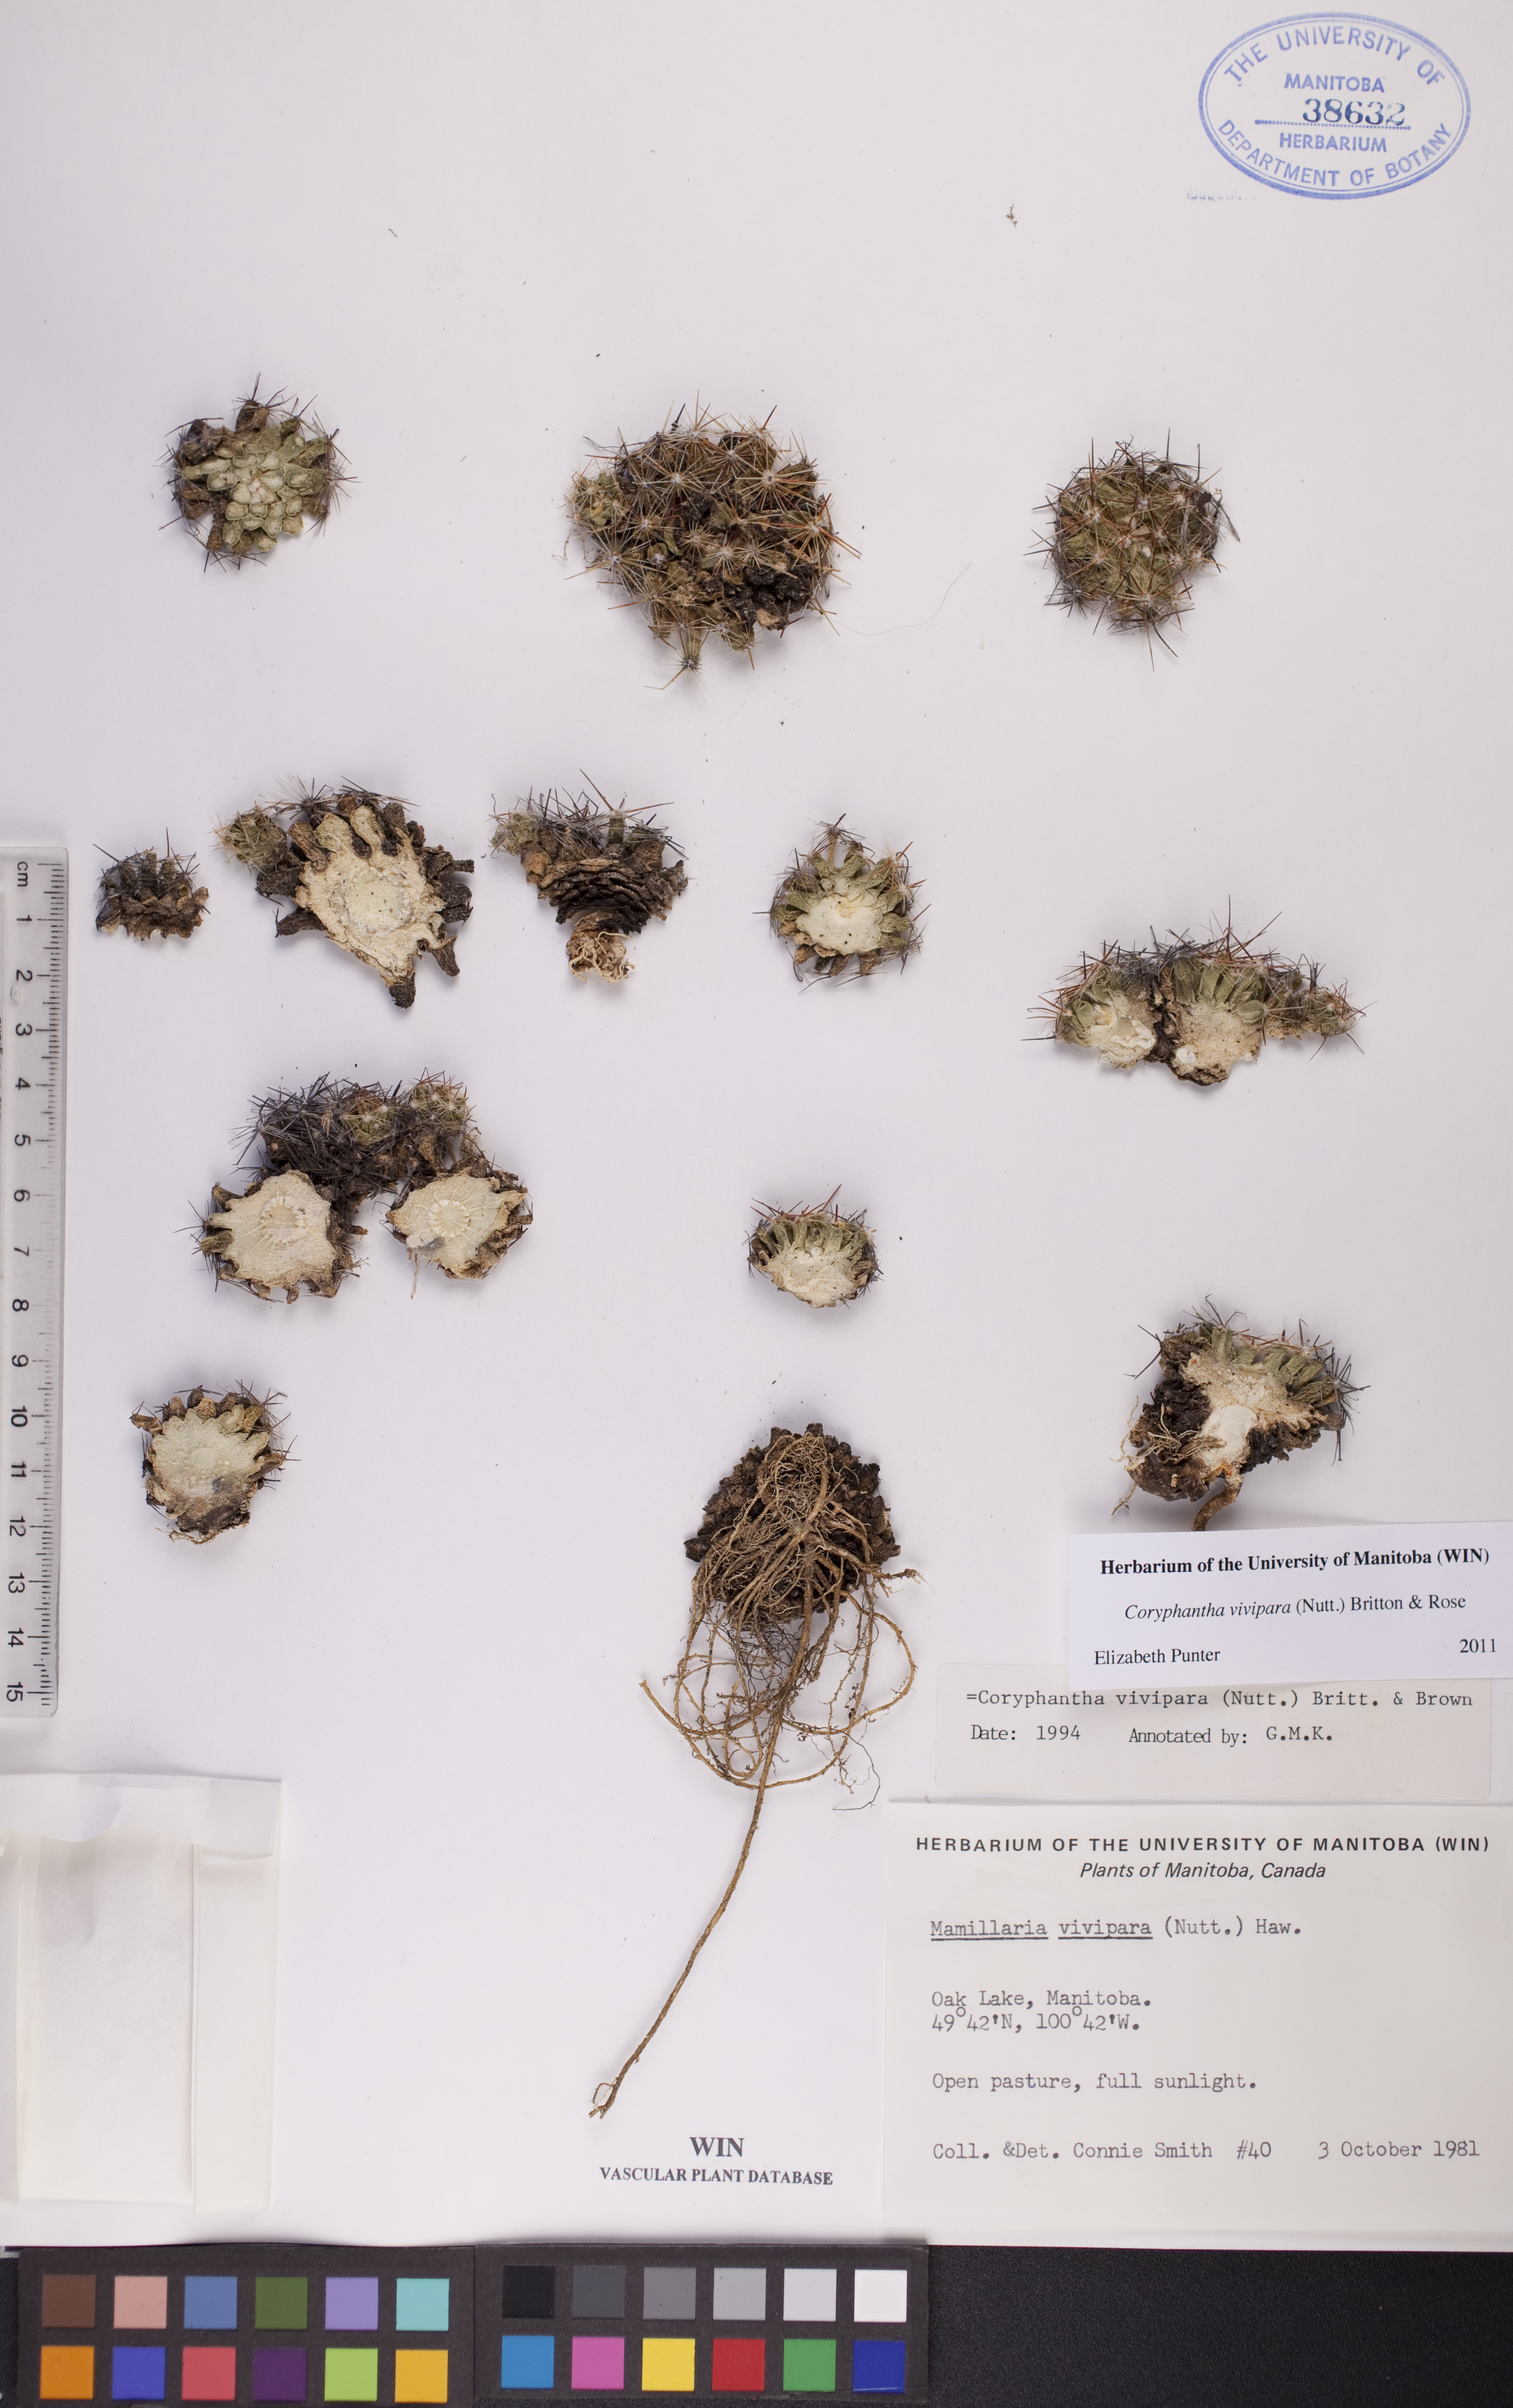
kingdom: Plantae
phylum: Tracheophyta
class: Magnoliopsida
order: Caryophyllales
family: Cactaceae
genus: Pelecyphora
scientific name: Pelecyphora vivipara
